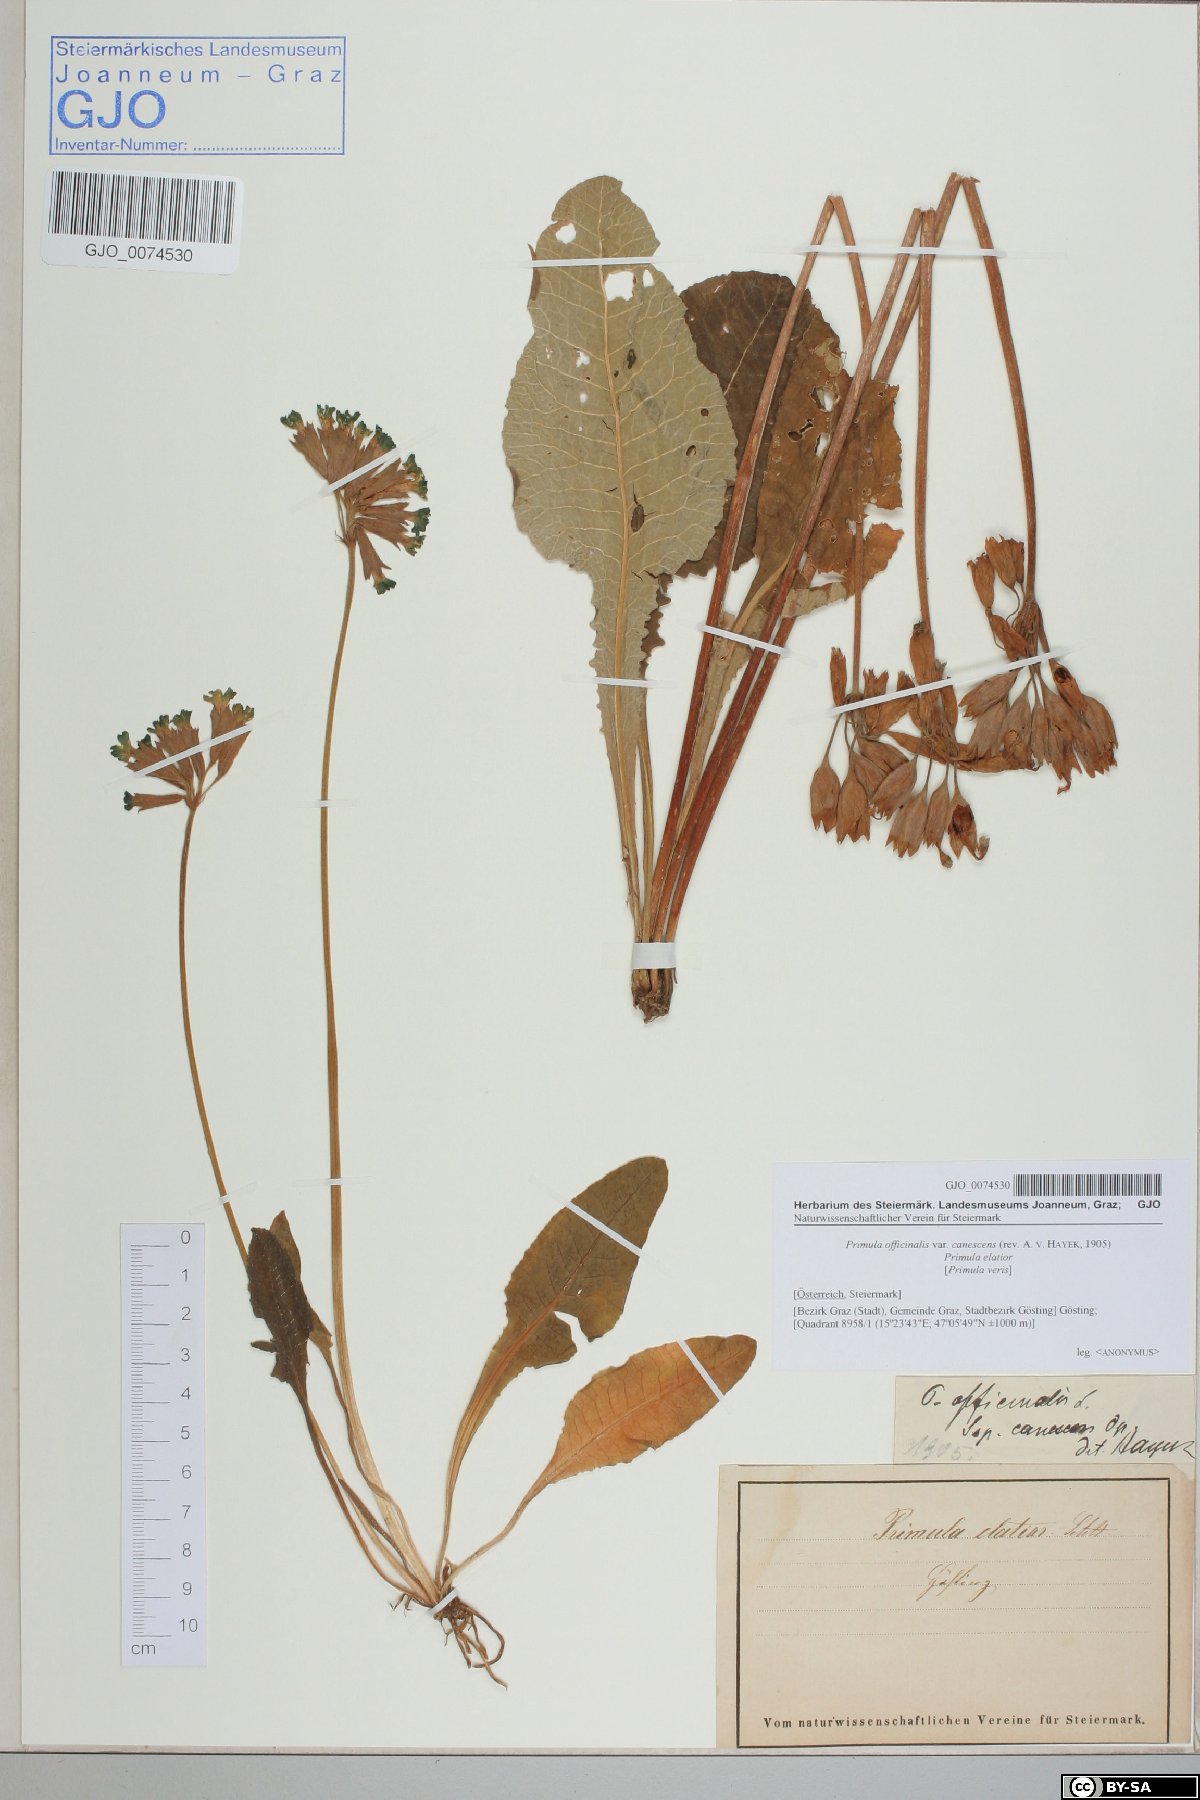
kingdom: Plantae
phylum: Tracheophyta
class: Magnoliopsida
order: Ericales
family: Primulaceae
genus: Primula
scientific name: Primula veris
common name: Cowslip
